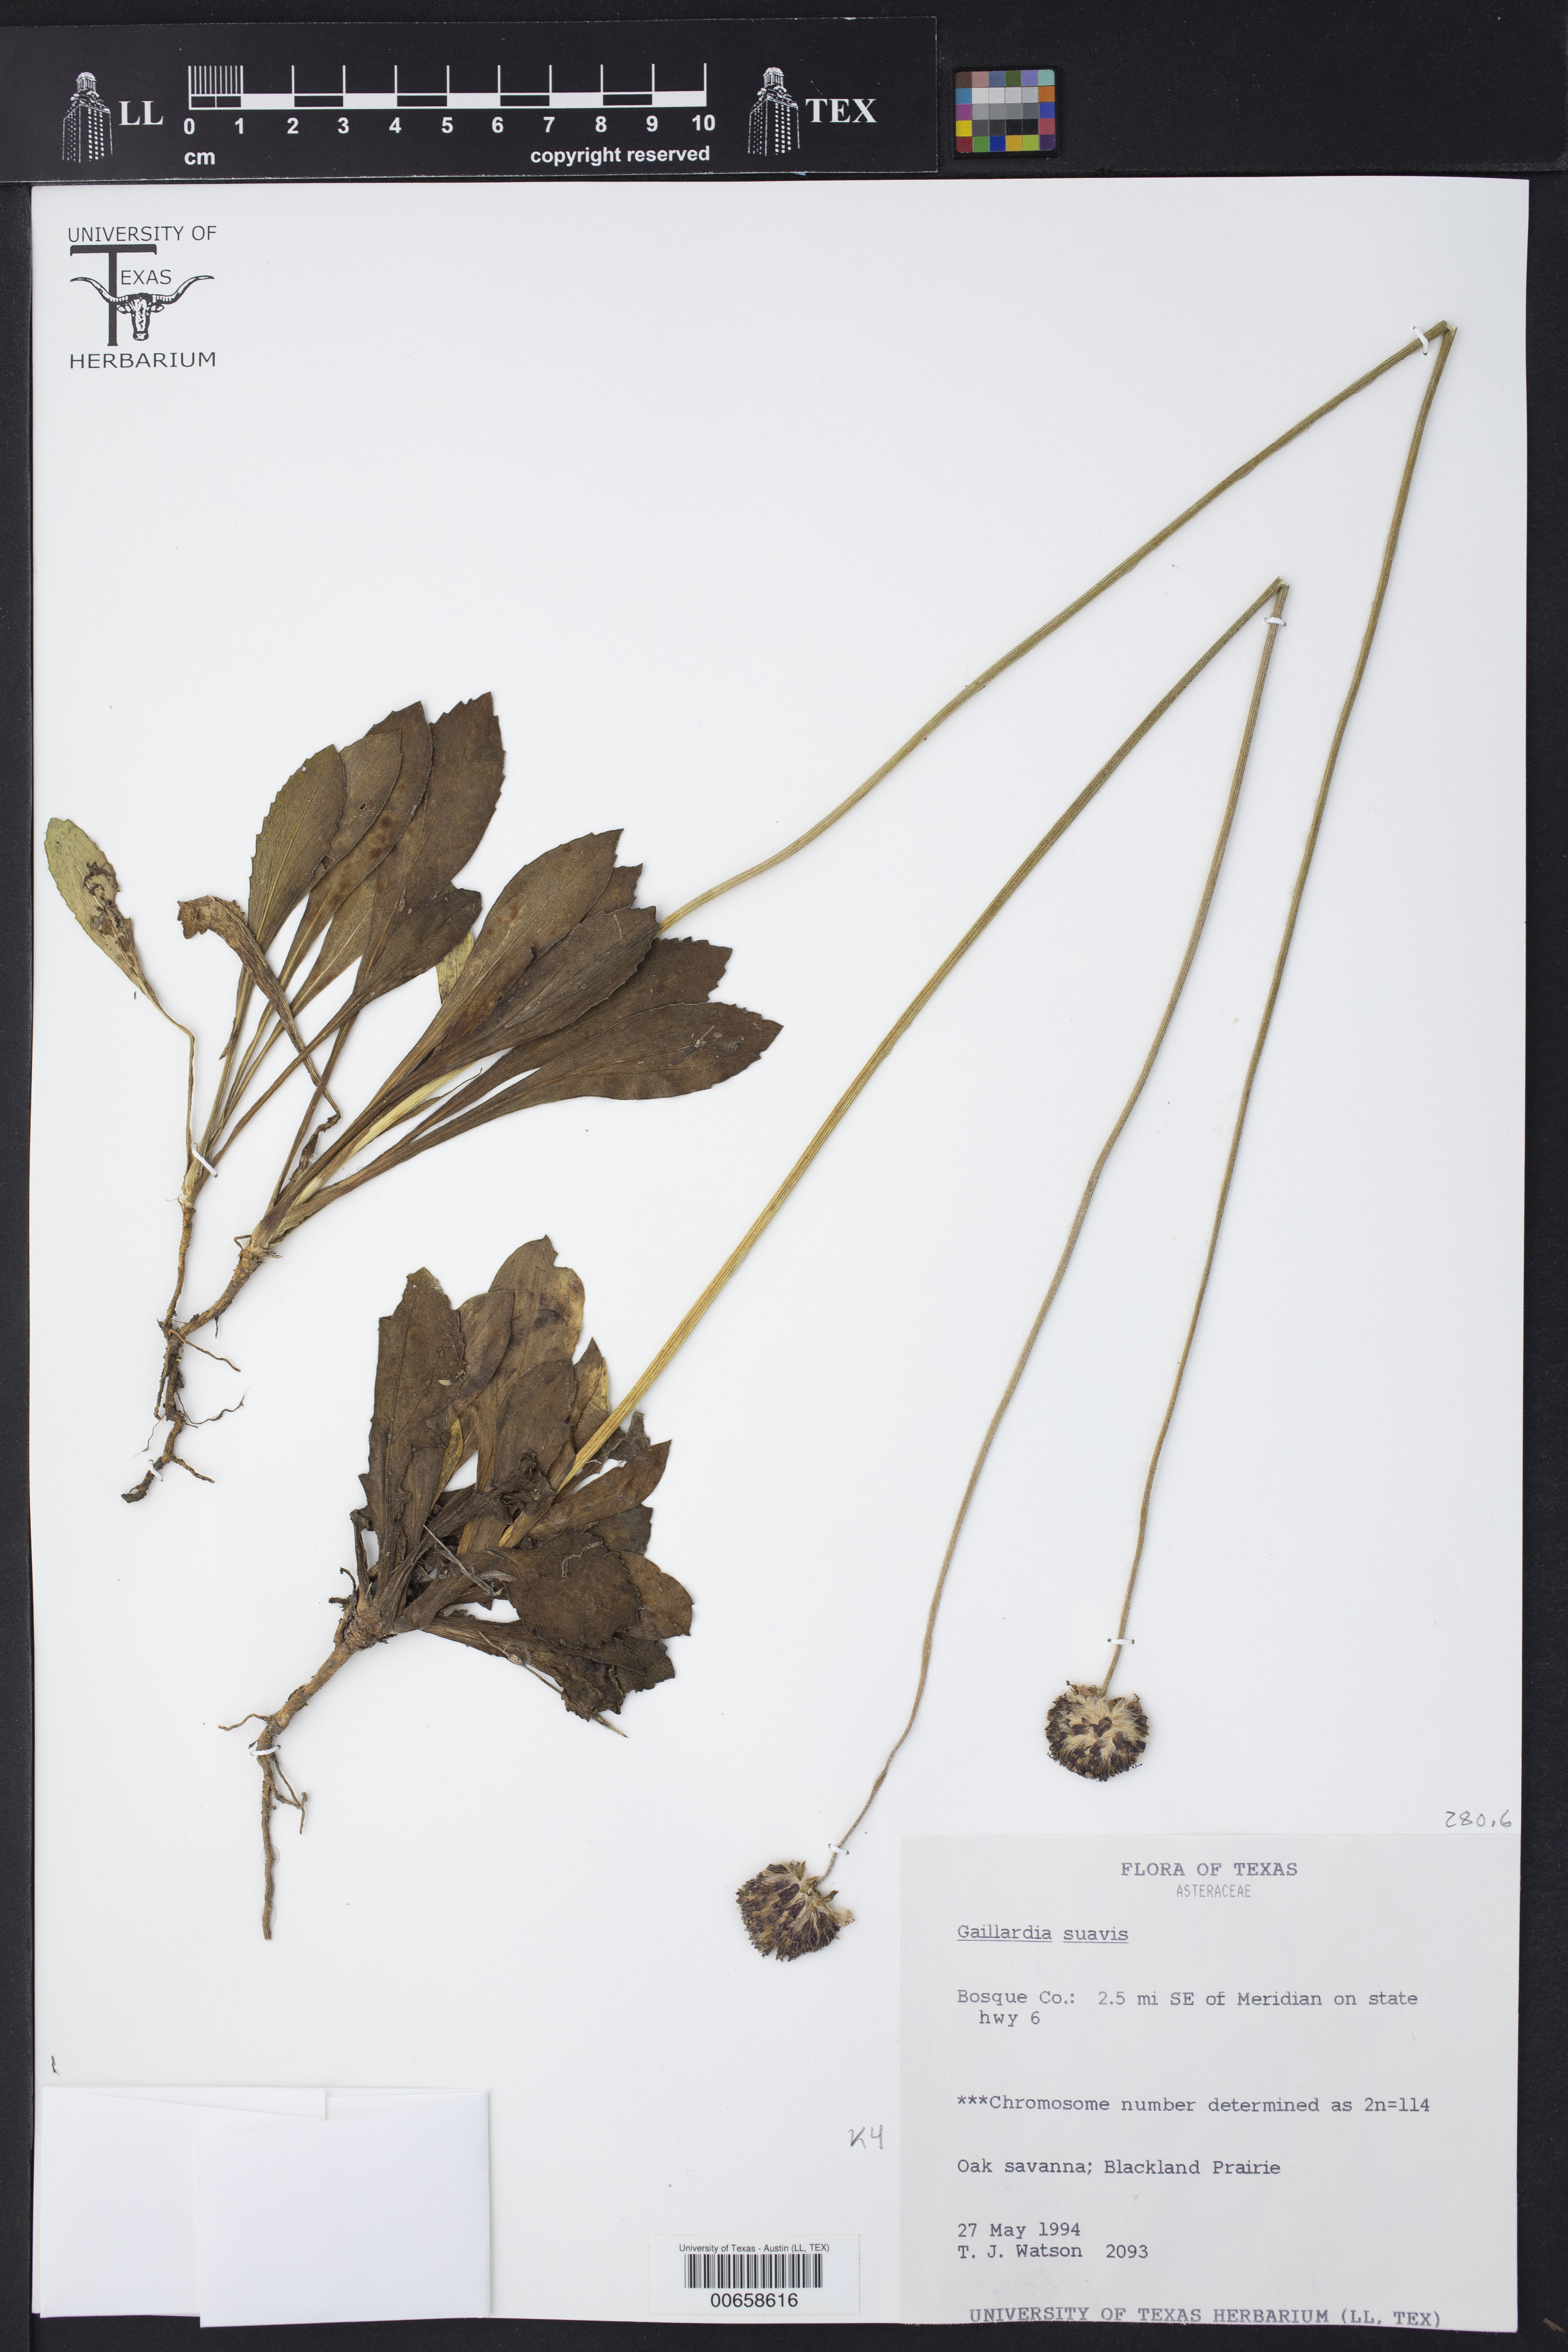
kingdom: Plantae
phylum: Tracheophyta
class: Magnoliopsida
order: Asterales
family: Asteraceae
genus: Gaillardia
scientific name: Gaillardia suavis
